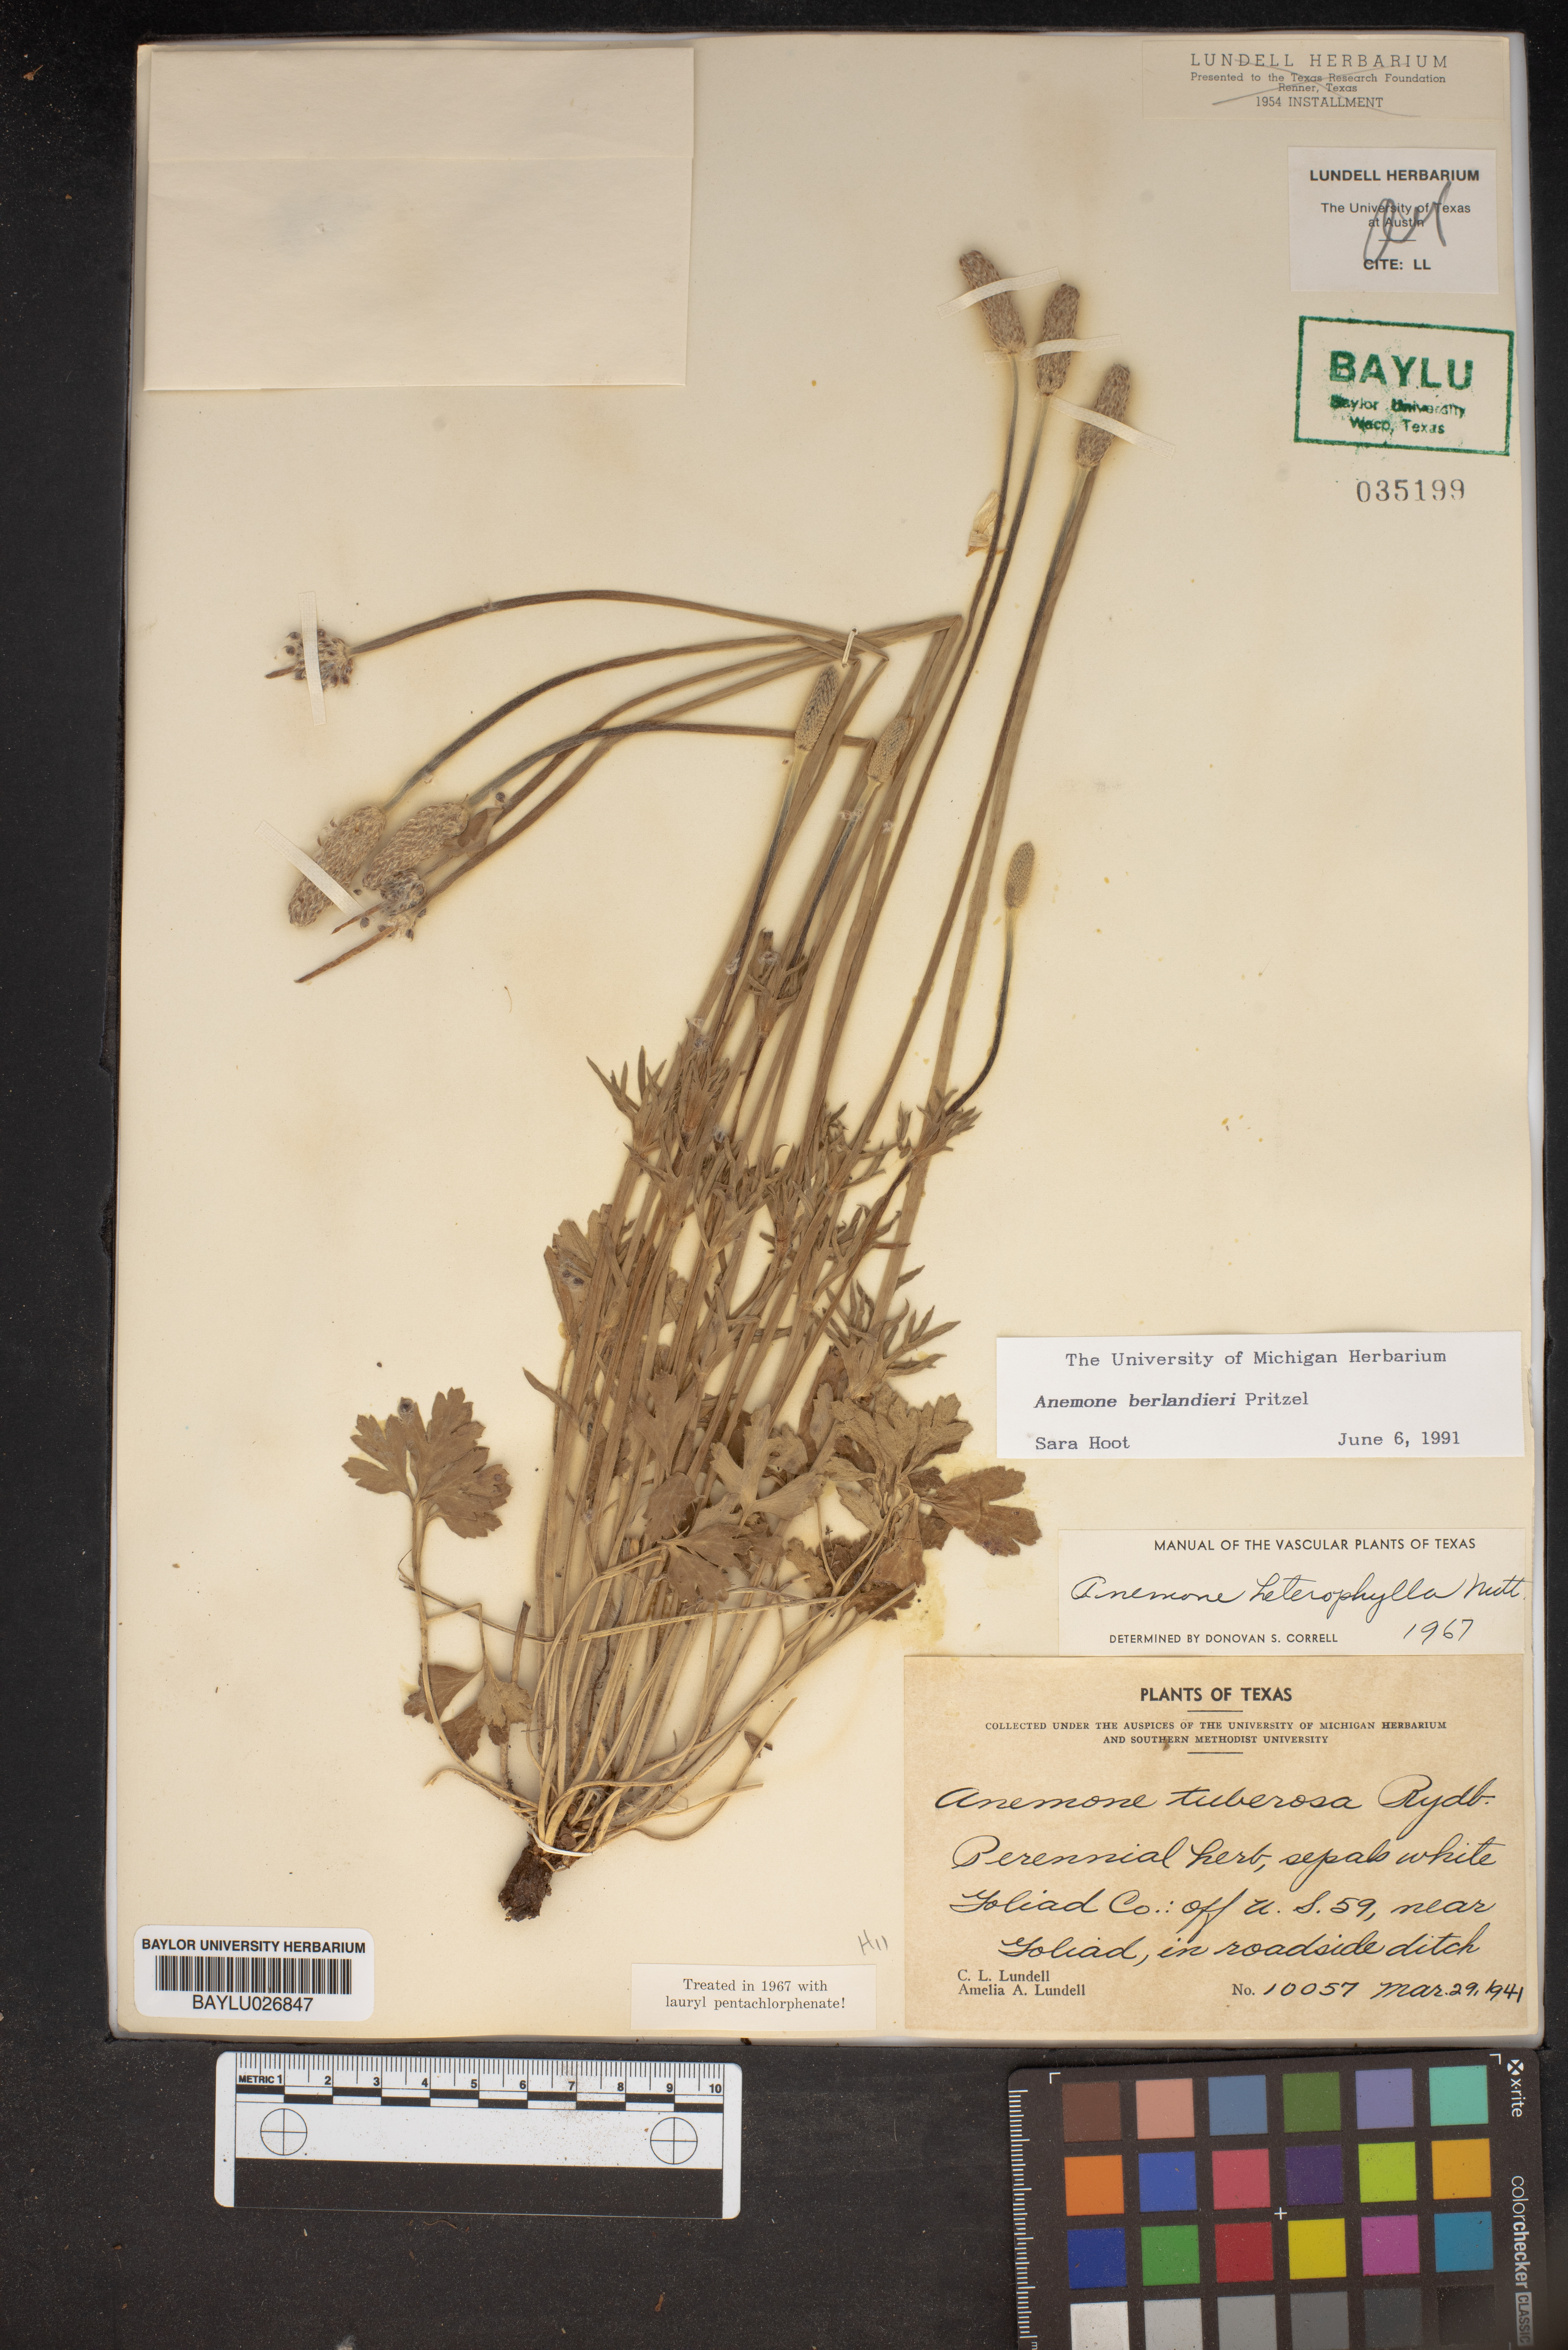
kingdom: Plantae
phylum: Tracheophyta
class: Magnoliopsida
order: Ranunculales
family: Ranunculaceae
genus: Anemone
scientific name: Anemone berlandieri
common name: Ten-petal anemone
